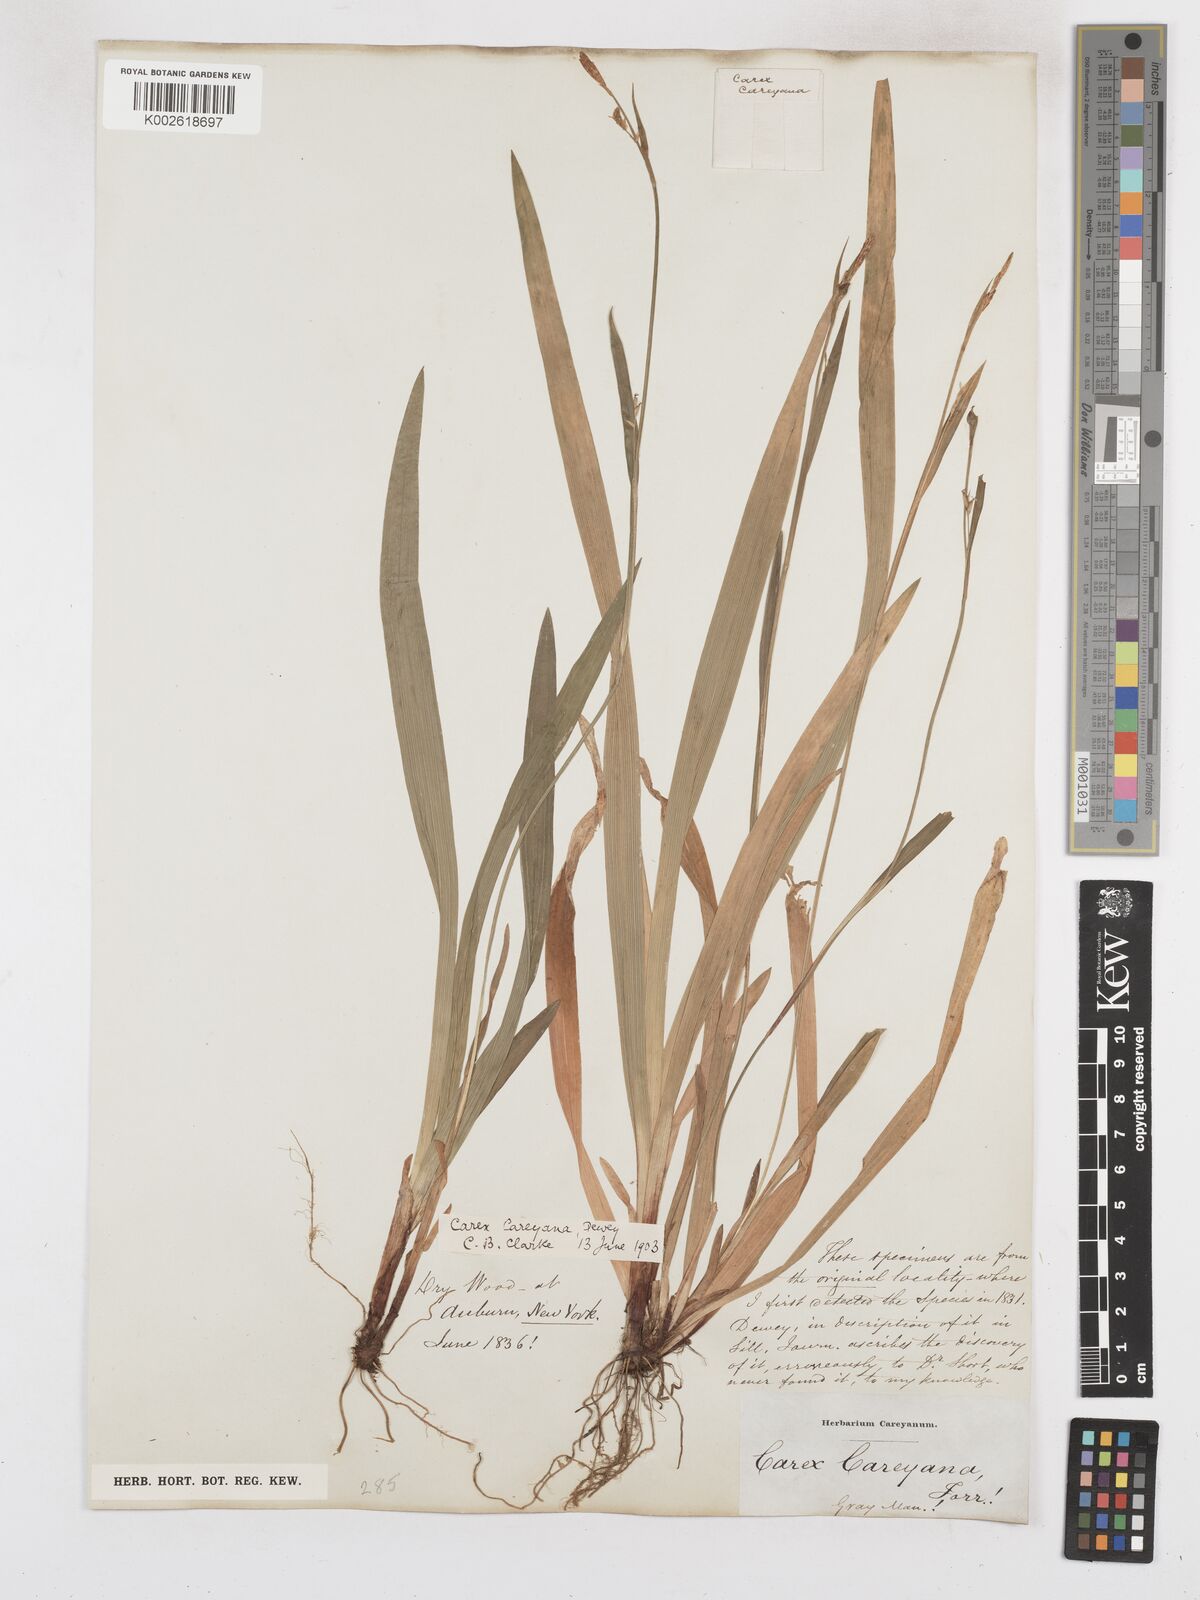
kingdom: Plantae
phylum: Tracheophyta
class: Liliopsida
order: Poales
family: Cyperaceae
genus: Carex
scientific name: Carex careyana
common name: Carey's sedge
